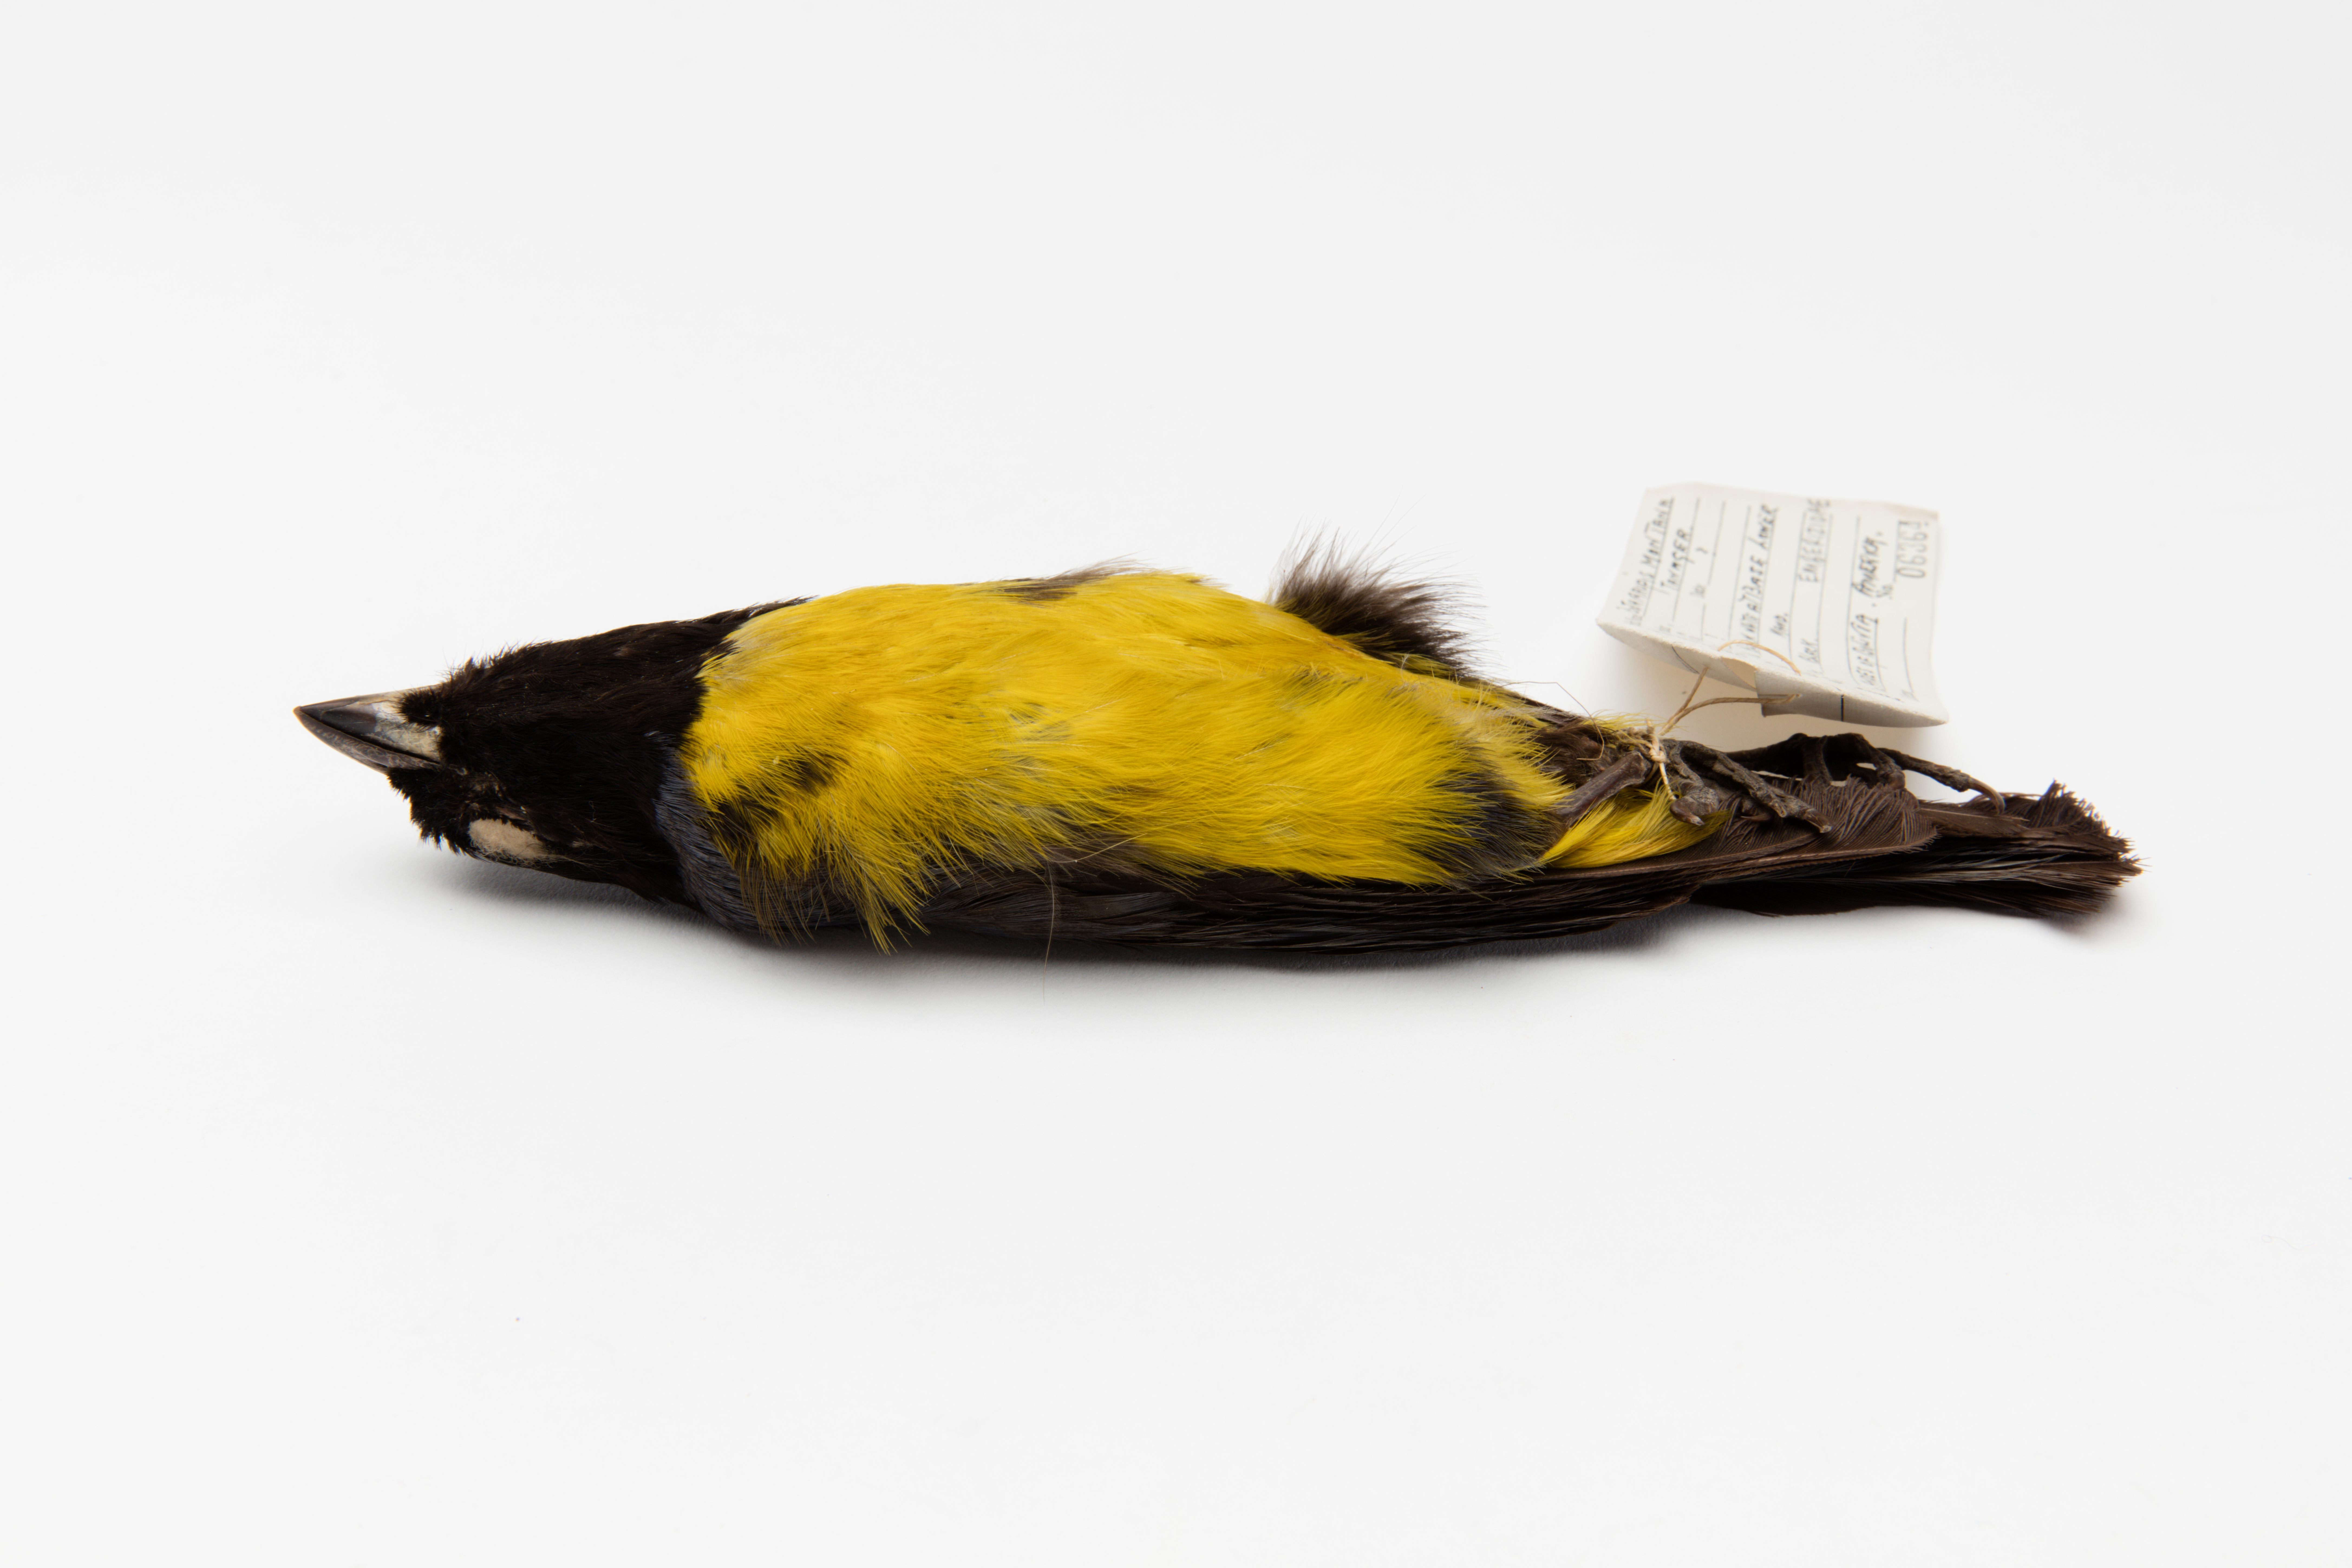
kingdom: Animalia
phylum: Chordata
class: Aves
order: Passeriformes
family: Thraupidae
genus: Buthraupis
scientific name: Buthraupis montana
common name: Hooded mountain tanager
